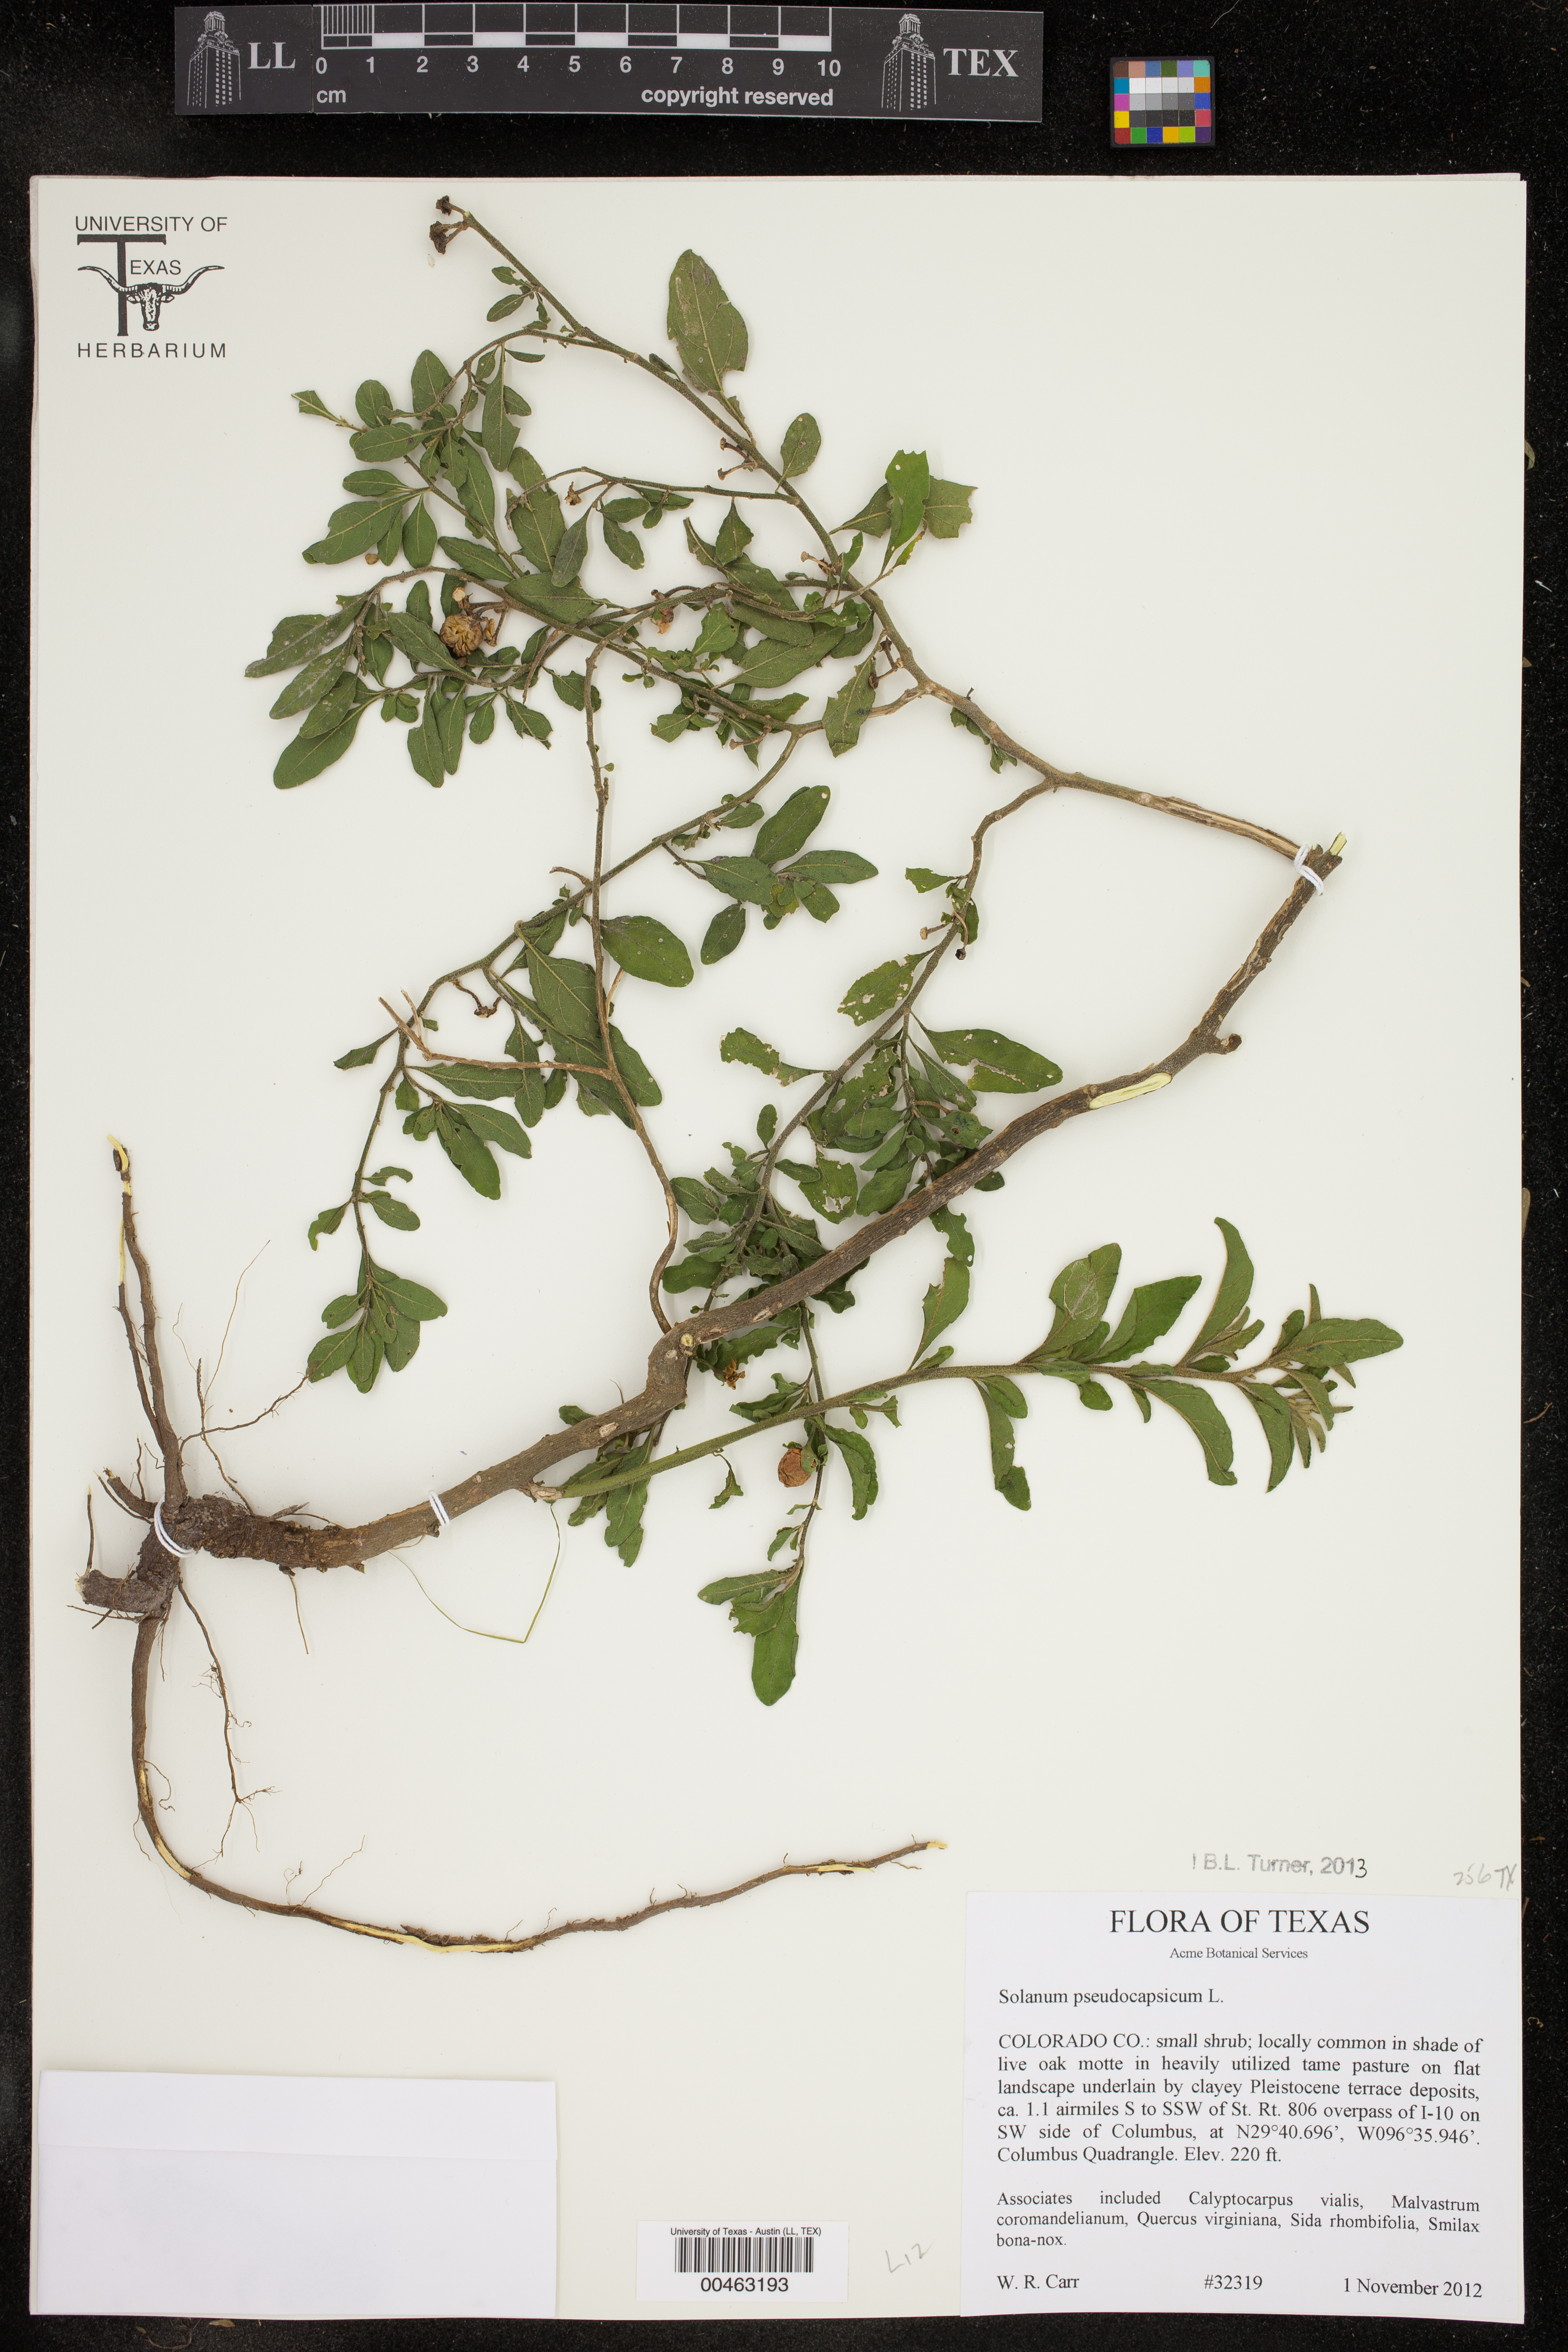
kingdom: Plantae
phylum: Tracheophyta
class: Magnoliopsida
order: Solanales
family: Solanaceae
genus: Solanum
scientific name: Solanum pseudocapsicum
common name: Jerusalem cherry
